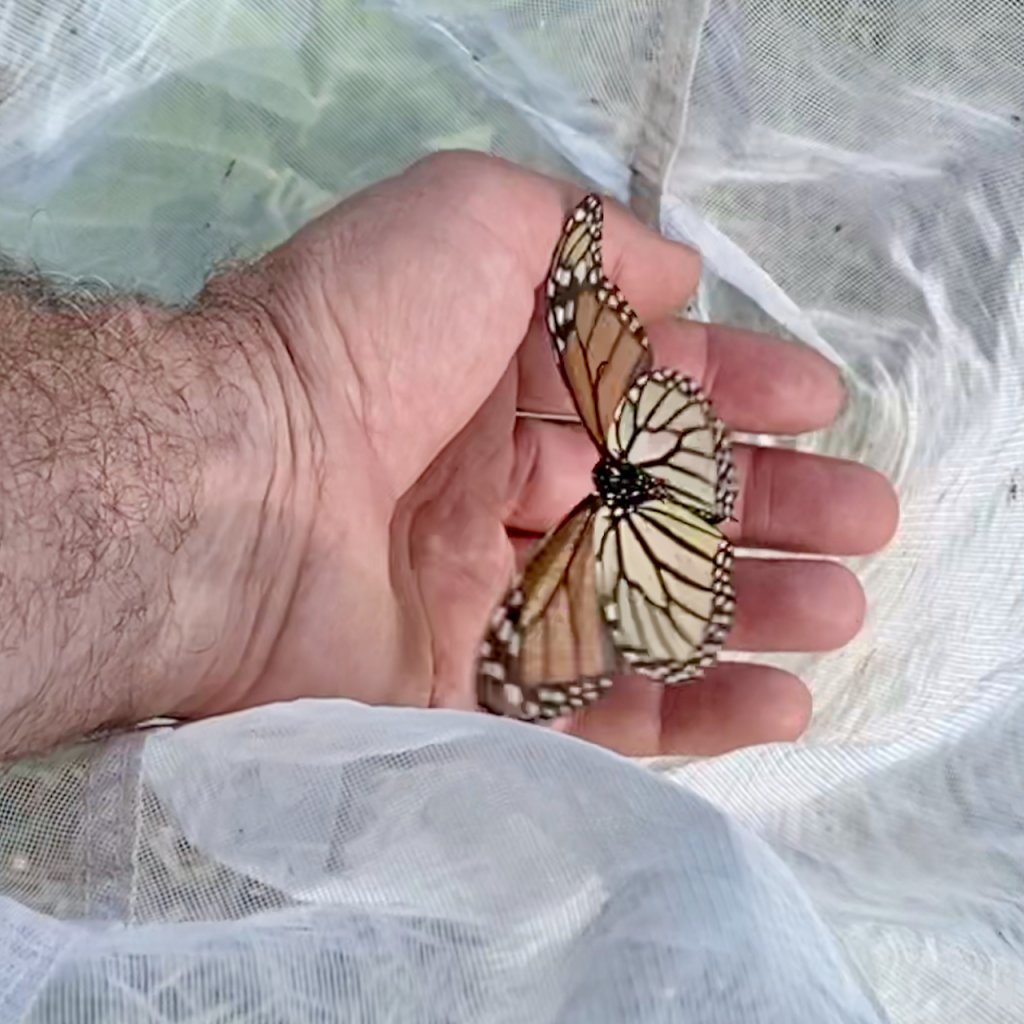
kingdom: Animalia
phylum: Arthropoda
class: Insecta
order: Lepidoptera
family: Nymphalidae
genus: Danaus
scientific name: Danaus plexippus
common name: Monarch
